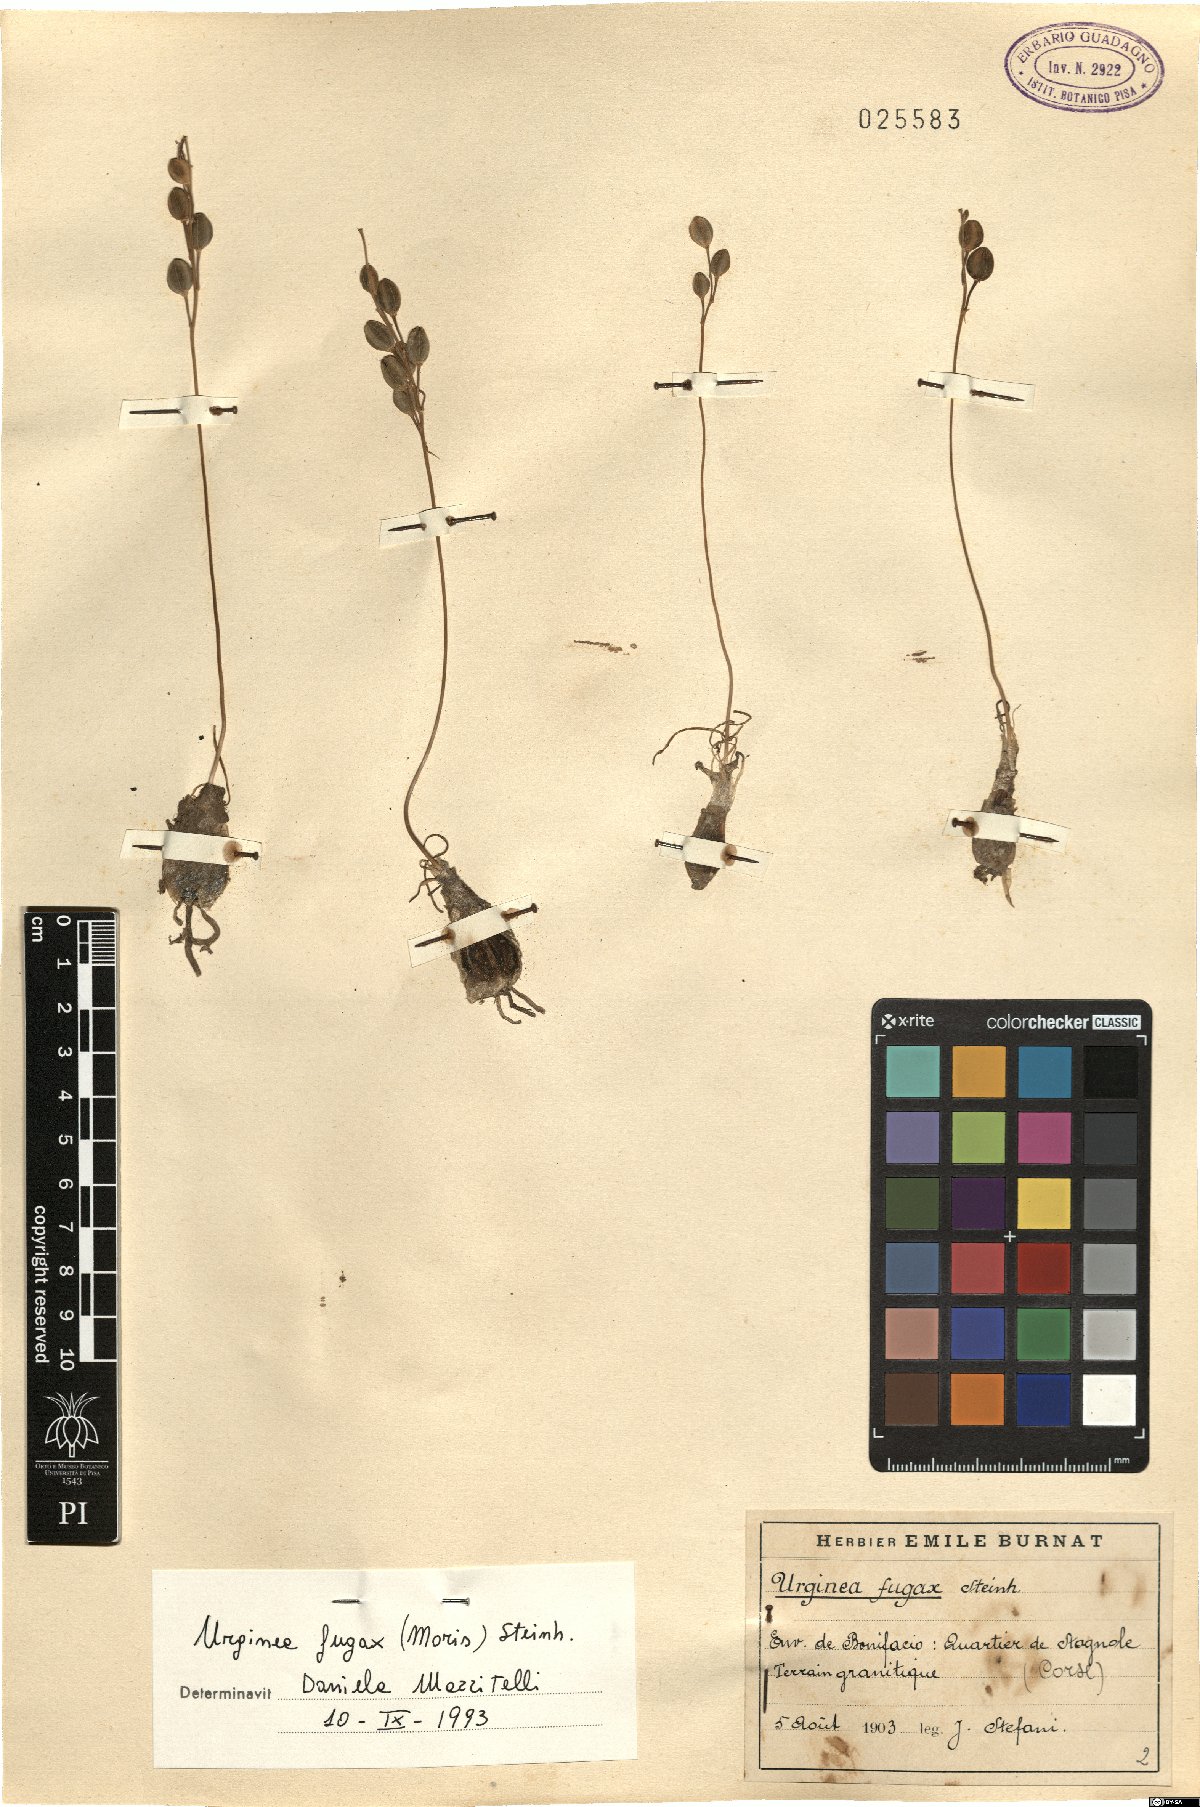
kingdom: Plantae
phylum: Tracheophyta
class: Liliopsida
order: Asparagales
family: Asparagaceae
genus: Drimia
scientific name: Drimia fugax
